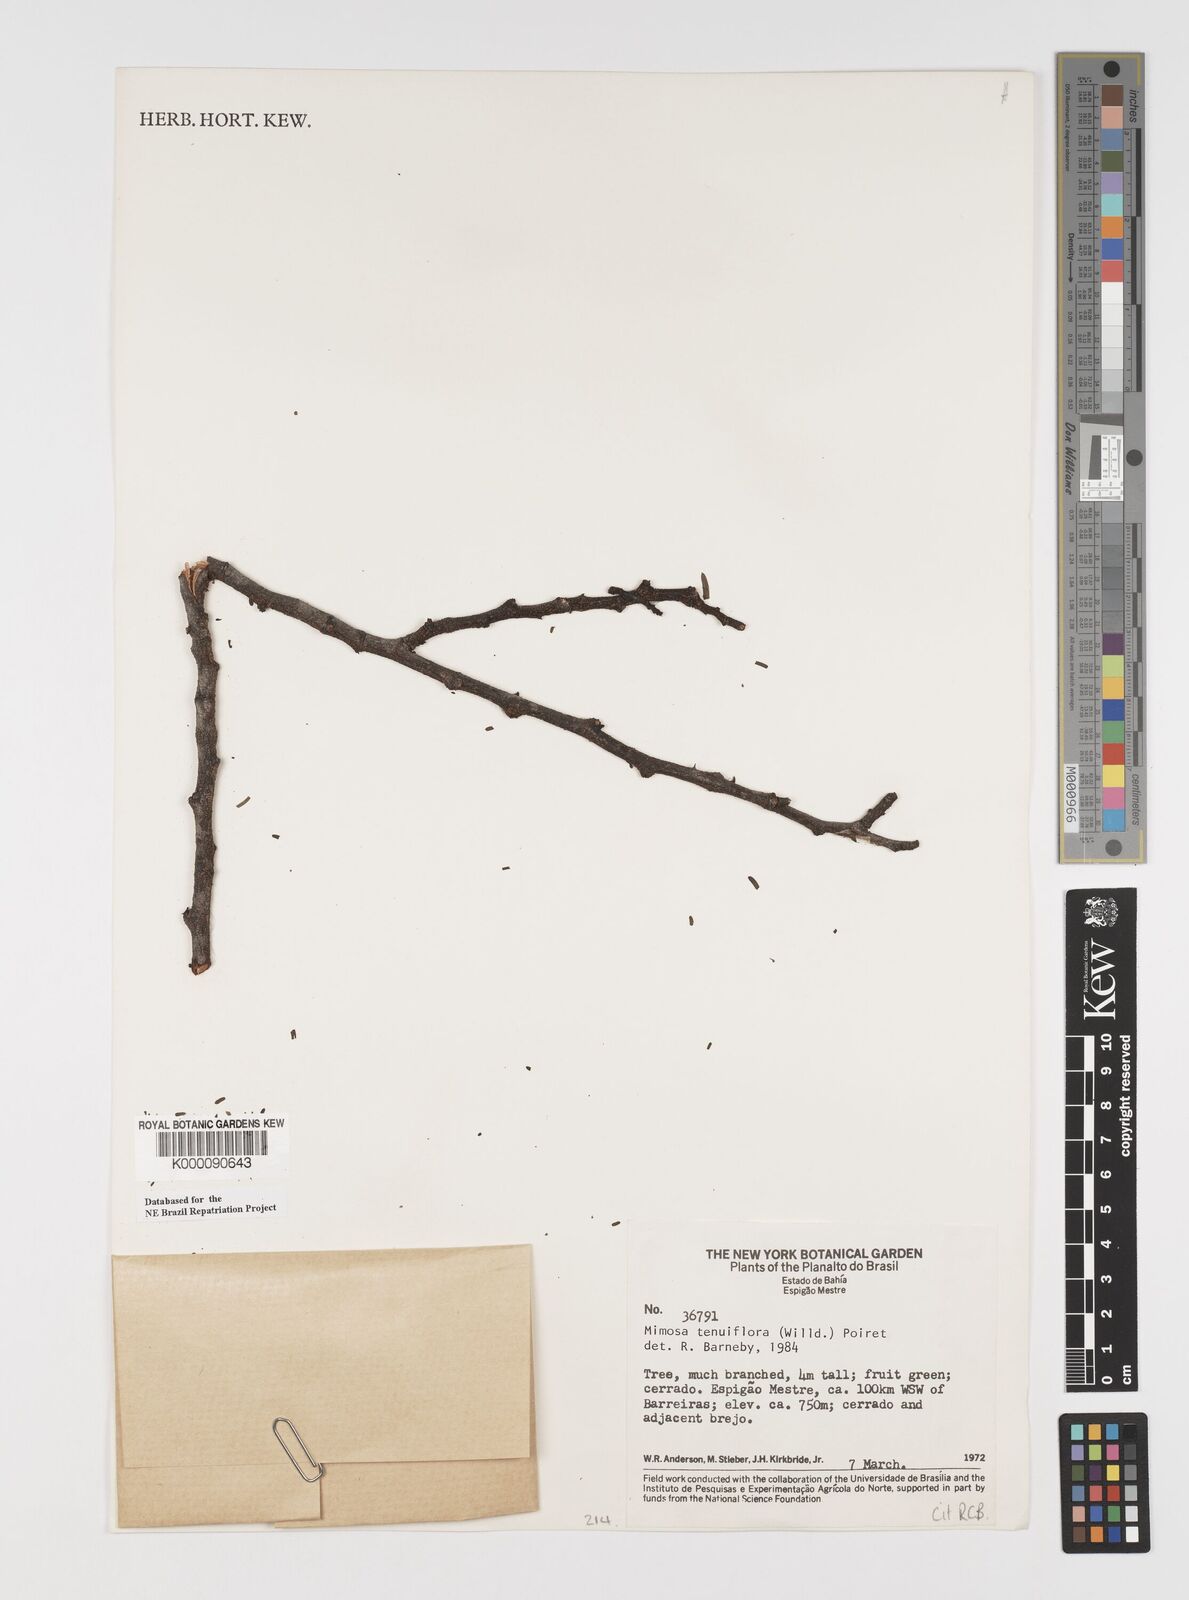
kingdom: Plantae
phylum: Tracheophyta
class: Magnoliopsida
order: Fabales
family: Fabaceae
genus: Mimosa
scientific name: Mimosa tenuiflora
